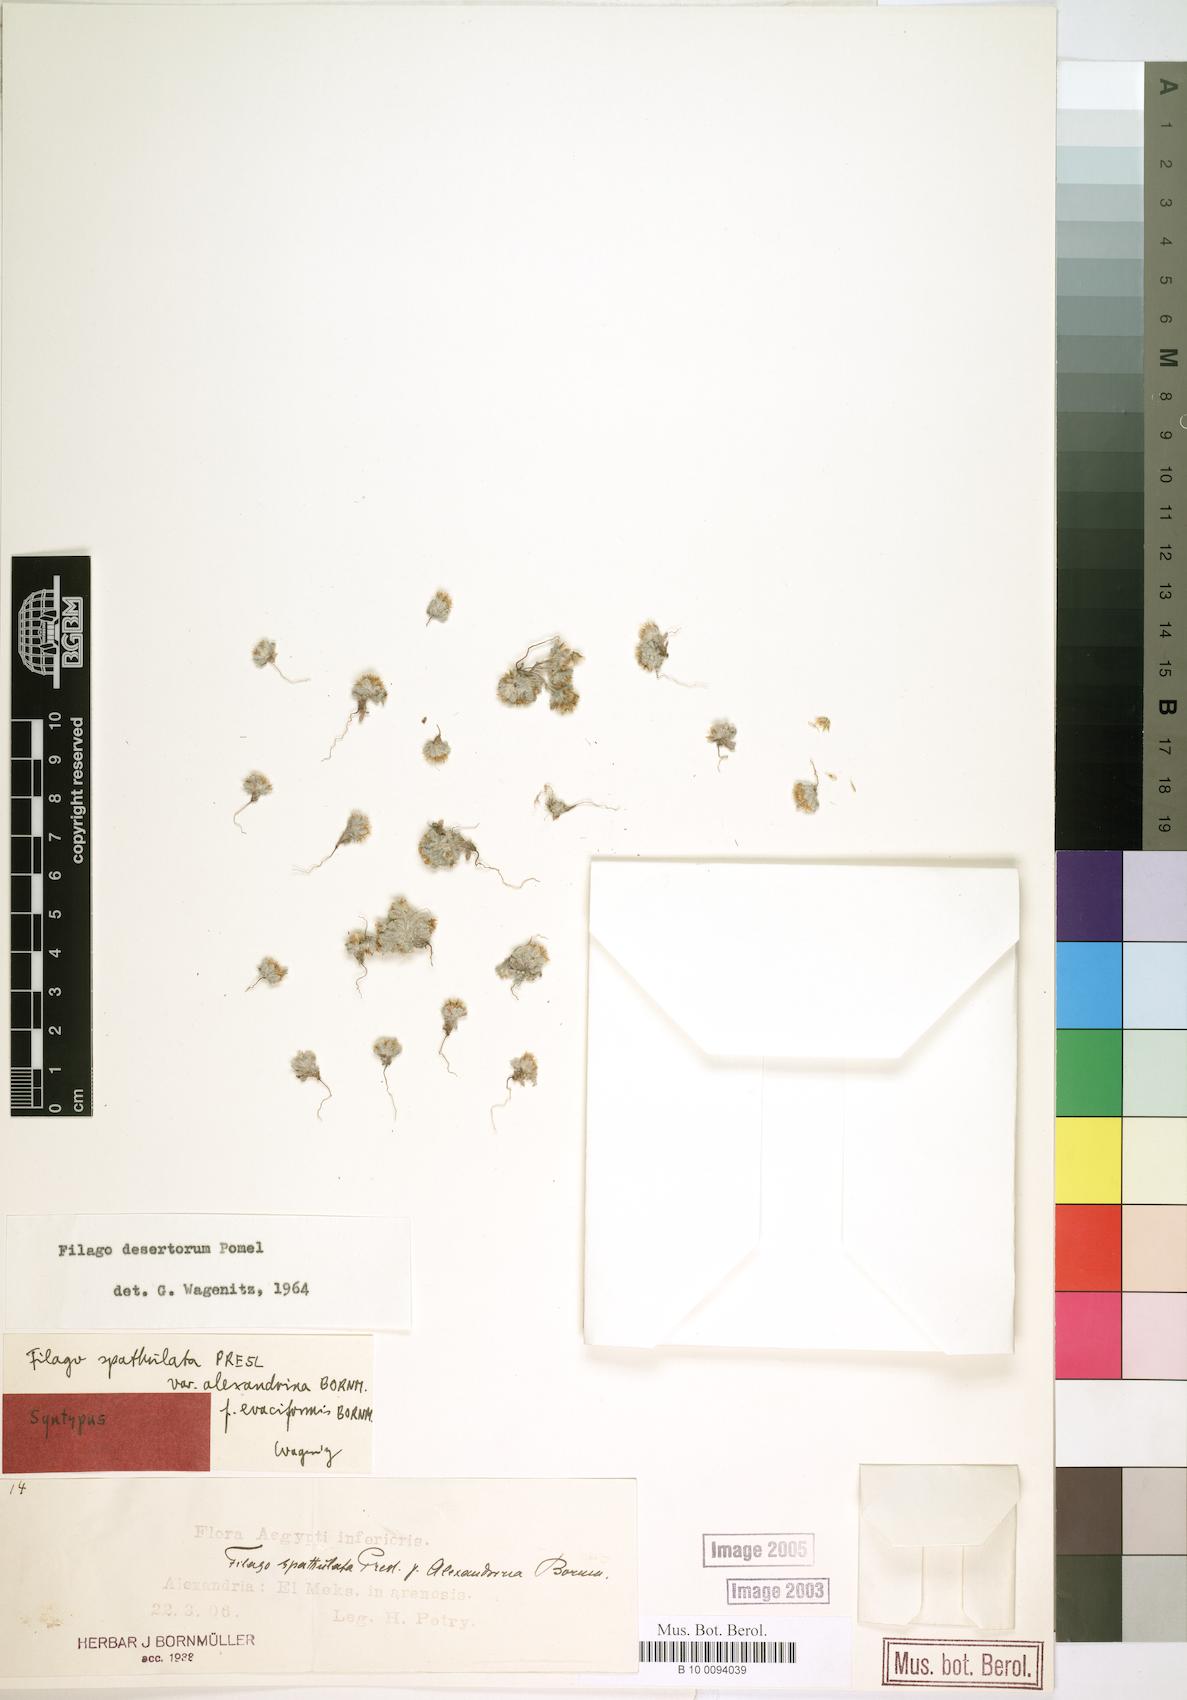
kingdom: Plantae
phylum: Tracheophyta
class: Magnoliopsida
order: Asterales
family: Asteraceae
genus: Filago
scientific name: Filago desertorum
